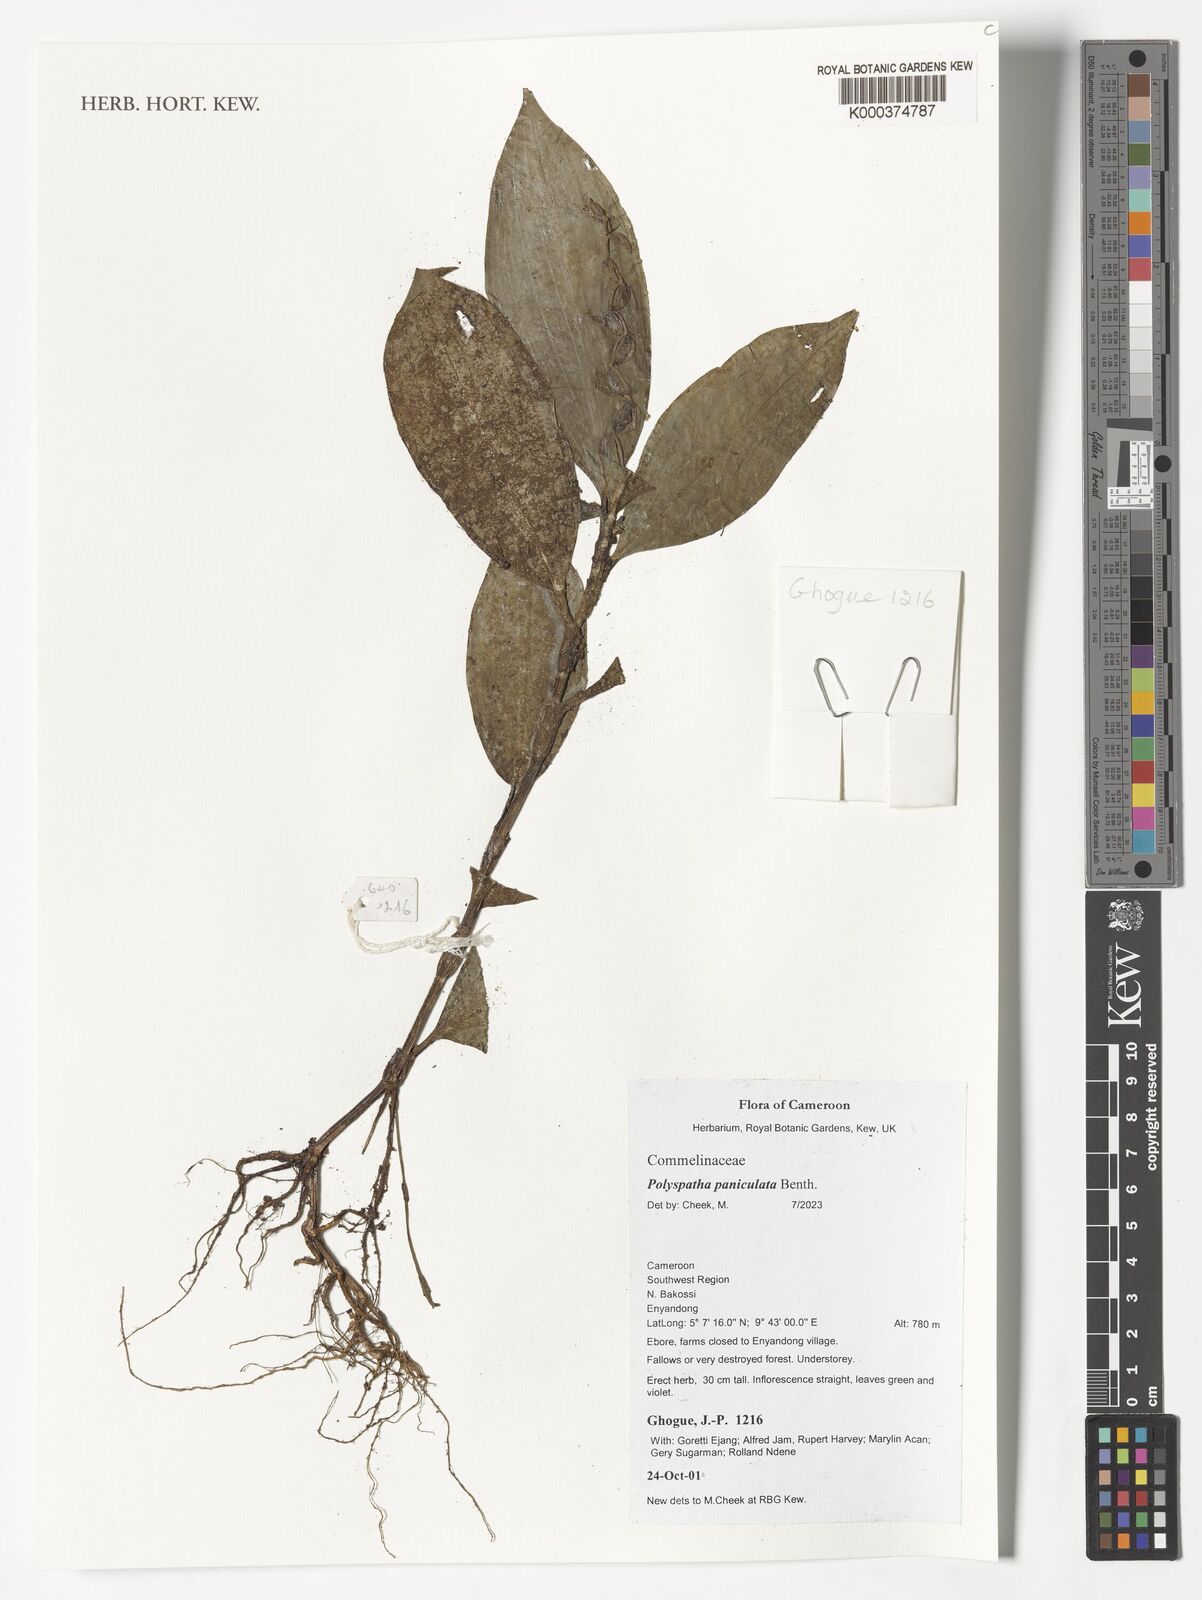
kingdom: Plantae
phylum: Tracheophyta
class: Liliopsida
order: Commelinales
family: Commelinaceae
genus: Polyspatha
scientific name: Polyspatha paniculata
